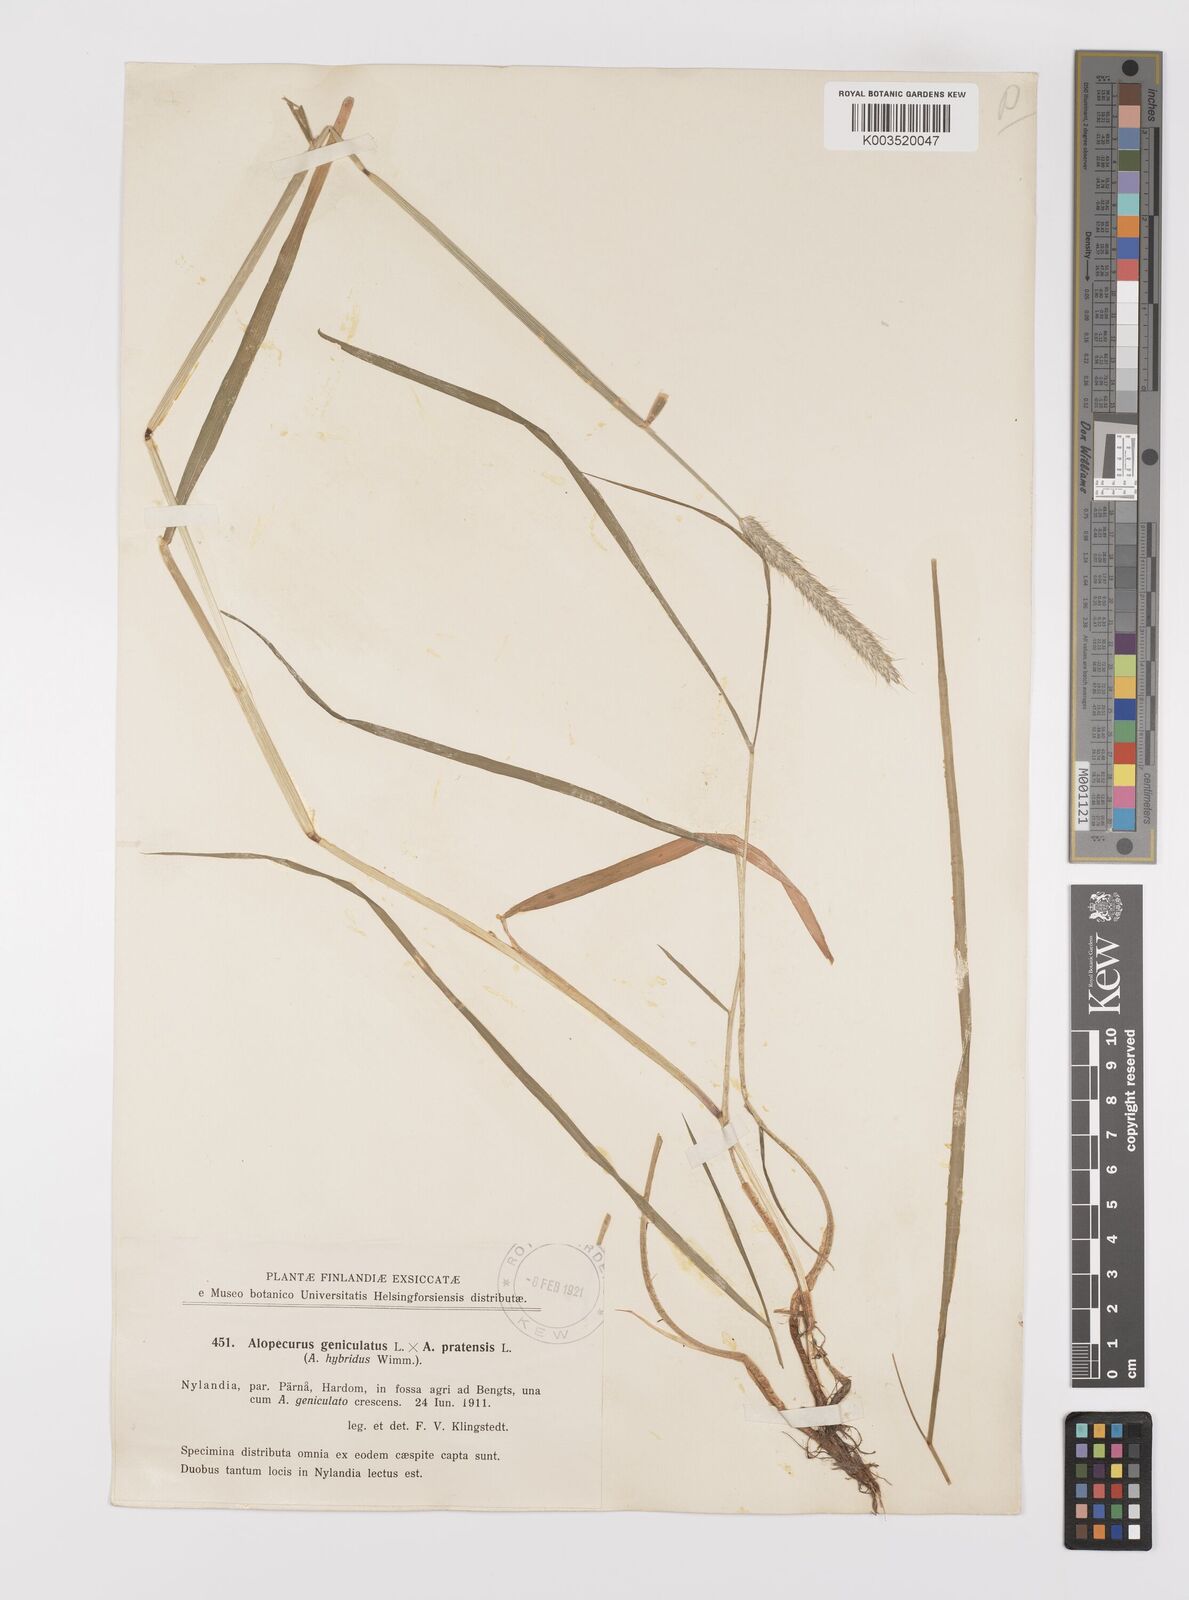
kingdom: Plantae
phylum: Tracheophyta
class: Liliopsida
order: Poales
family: Poaceae
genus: Alopecurus
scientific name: Alopecurus brachystylus
